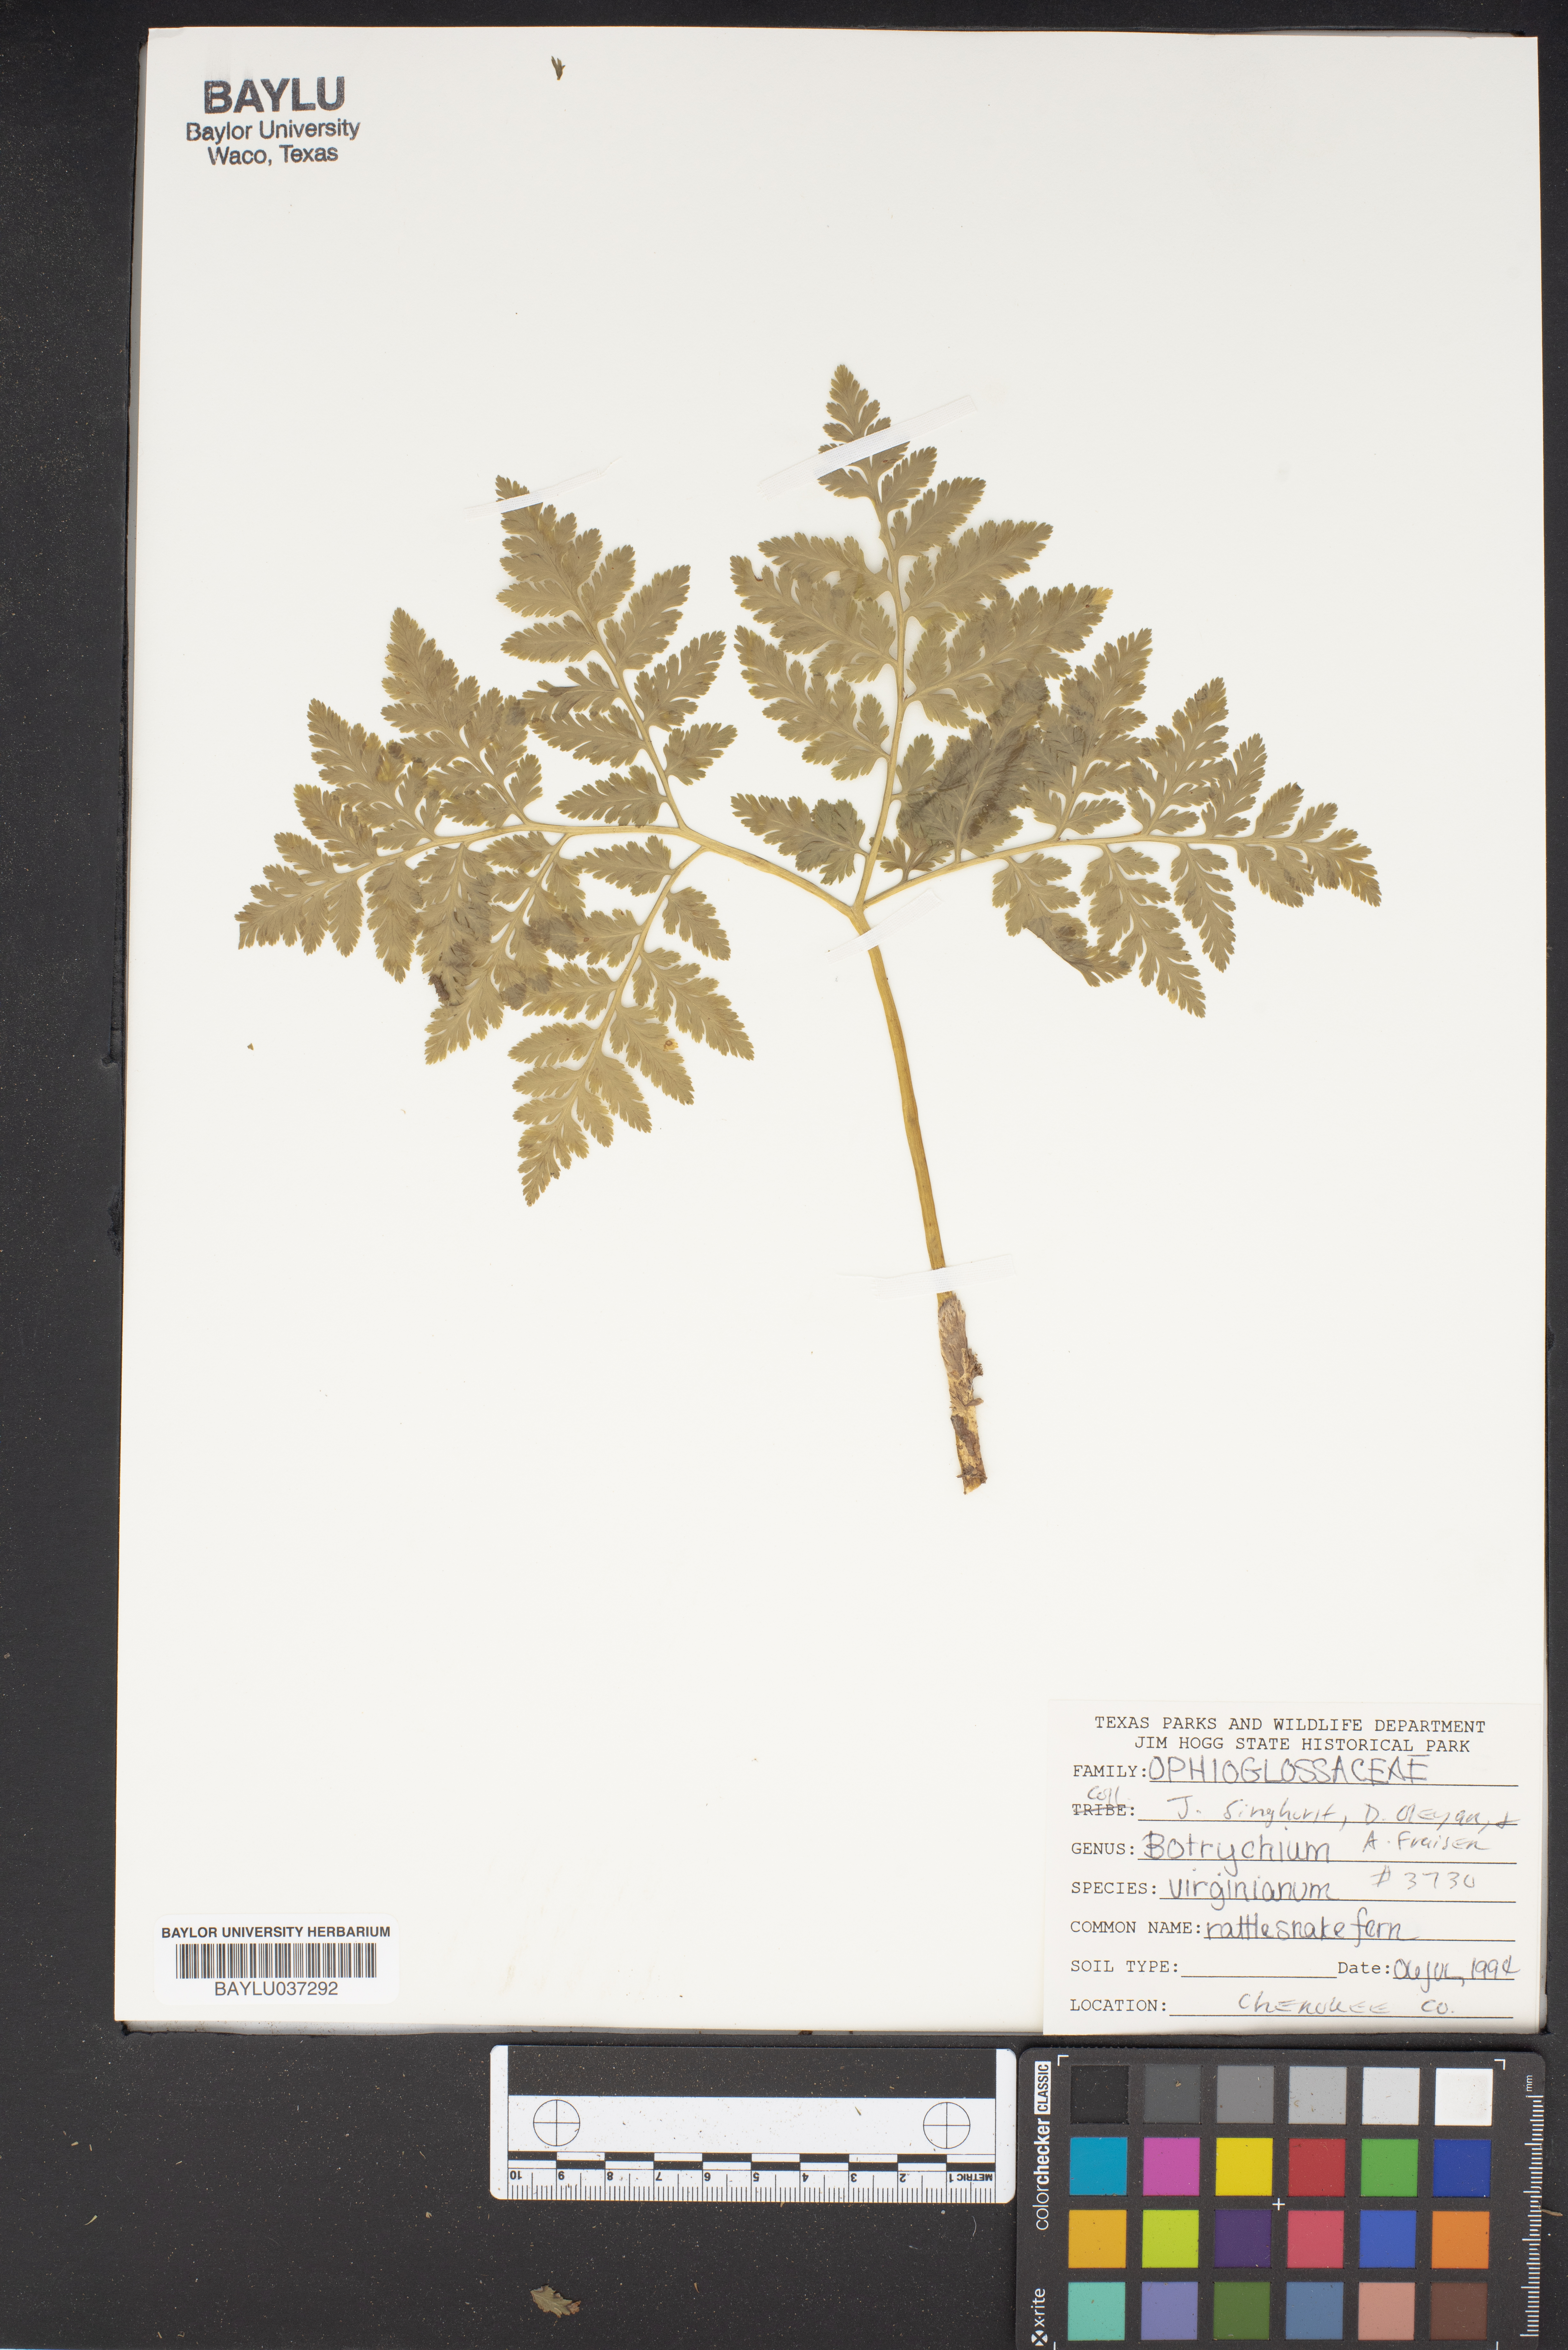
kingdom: Plantae
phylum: Tracheophyta
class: Polypodiopsida
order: Ophioglossales
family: Ophioglossaceae
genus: Botrypus
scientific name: Botrypus virginianus
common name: Common grapefern
